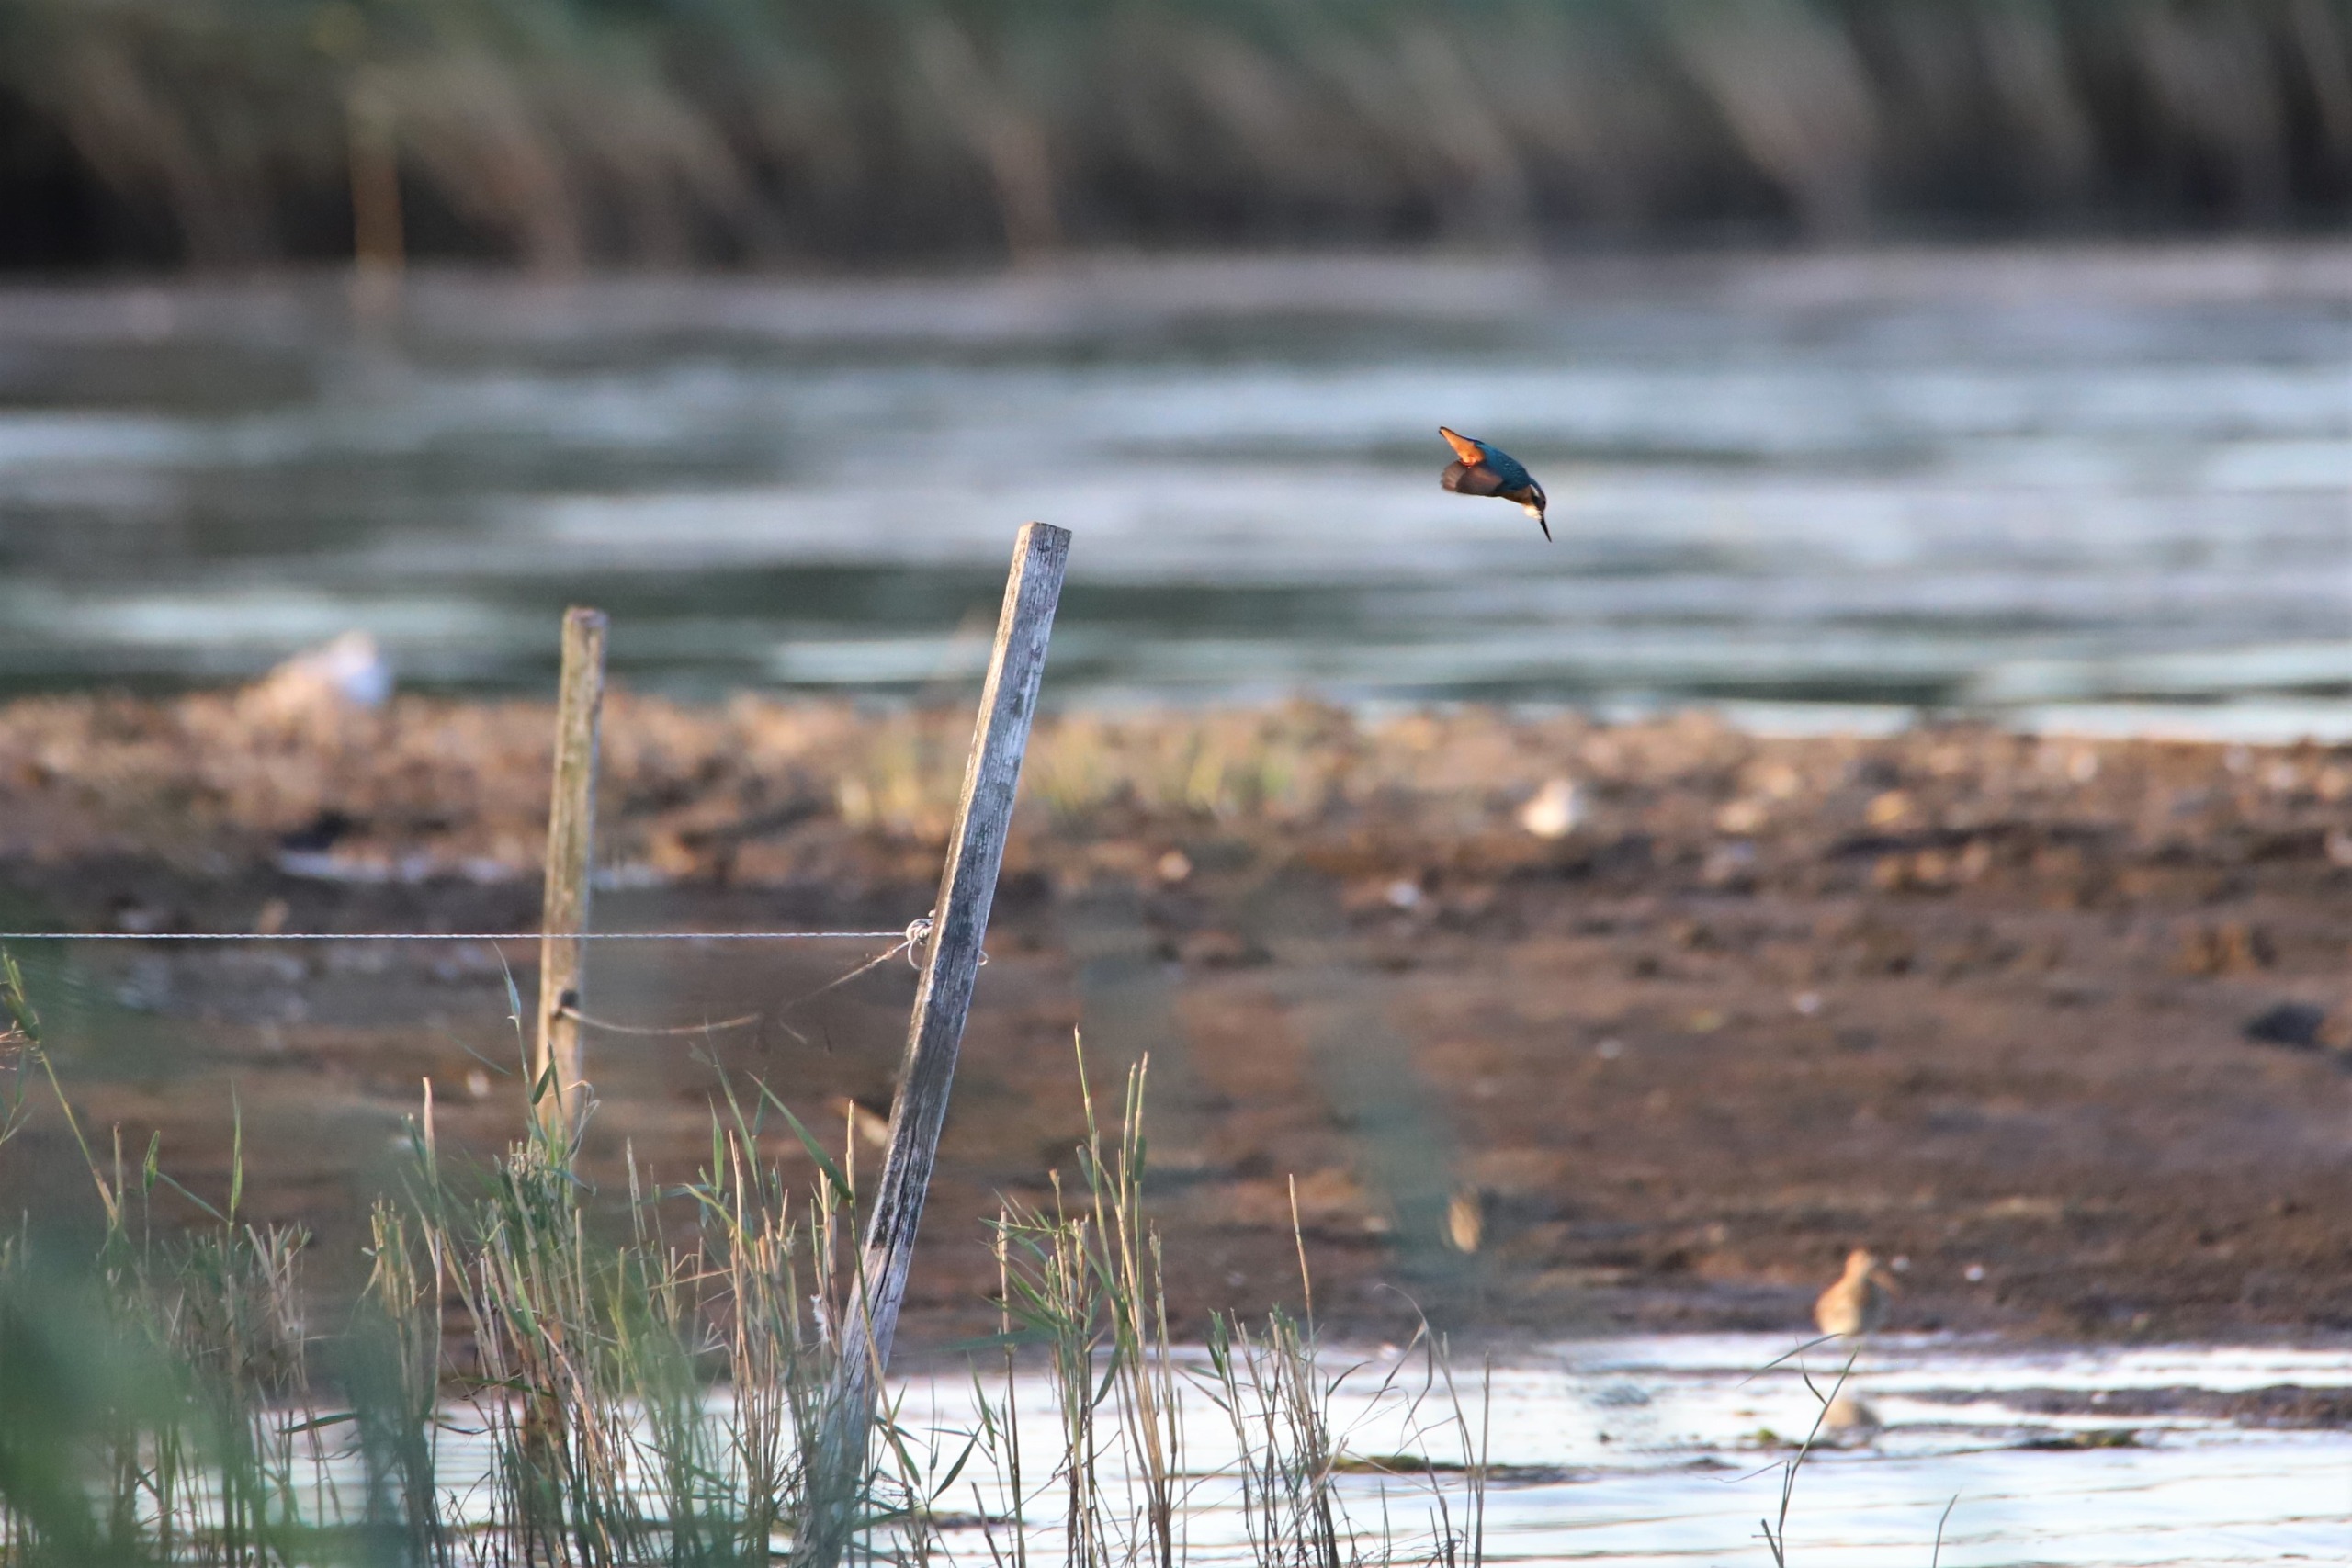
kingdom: Animalia
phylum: Chordata
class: Aves
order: Coraciiformes
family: Alcedinidae
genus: Alcedo
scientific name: Alcedo atthis
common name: Isfugl
